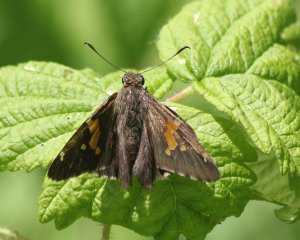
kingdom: Animalia
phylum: Arthropoda
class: Insecta
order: Lepidoptera
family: Hesperiidae
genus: Epargyreus
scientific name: Epargyreus clarus
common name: Silver-spotted Skipper
